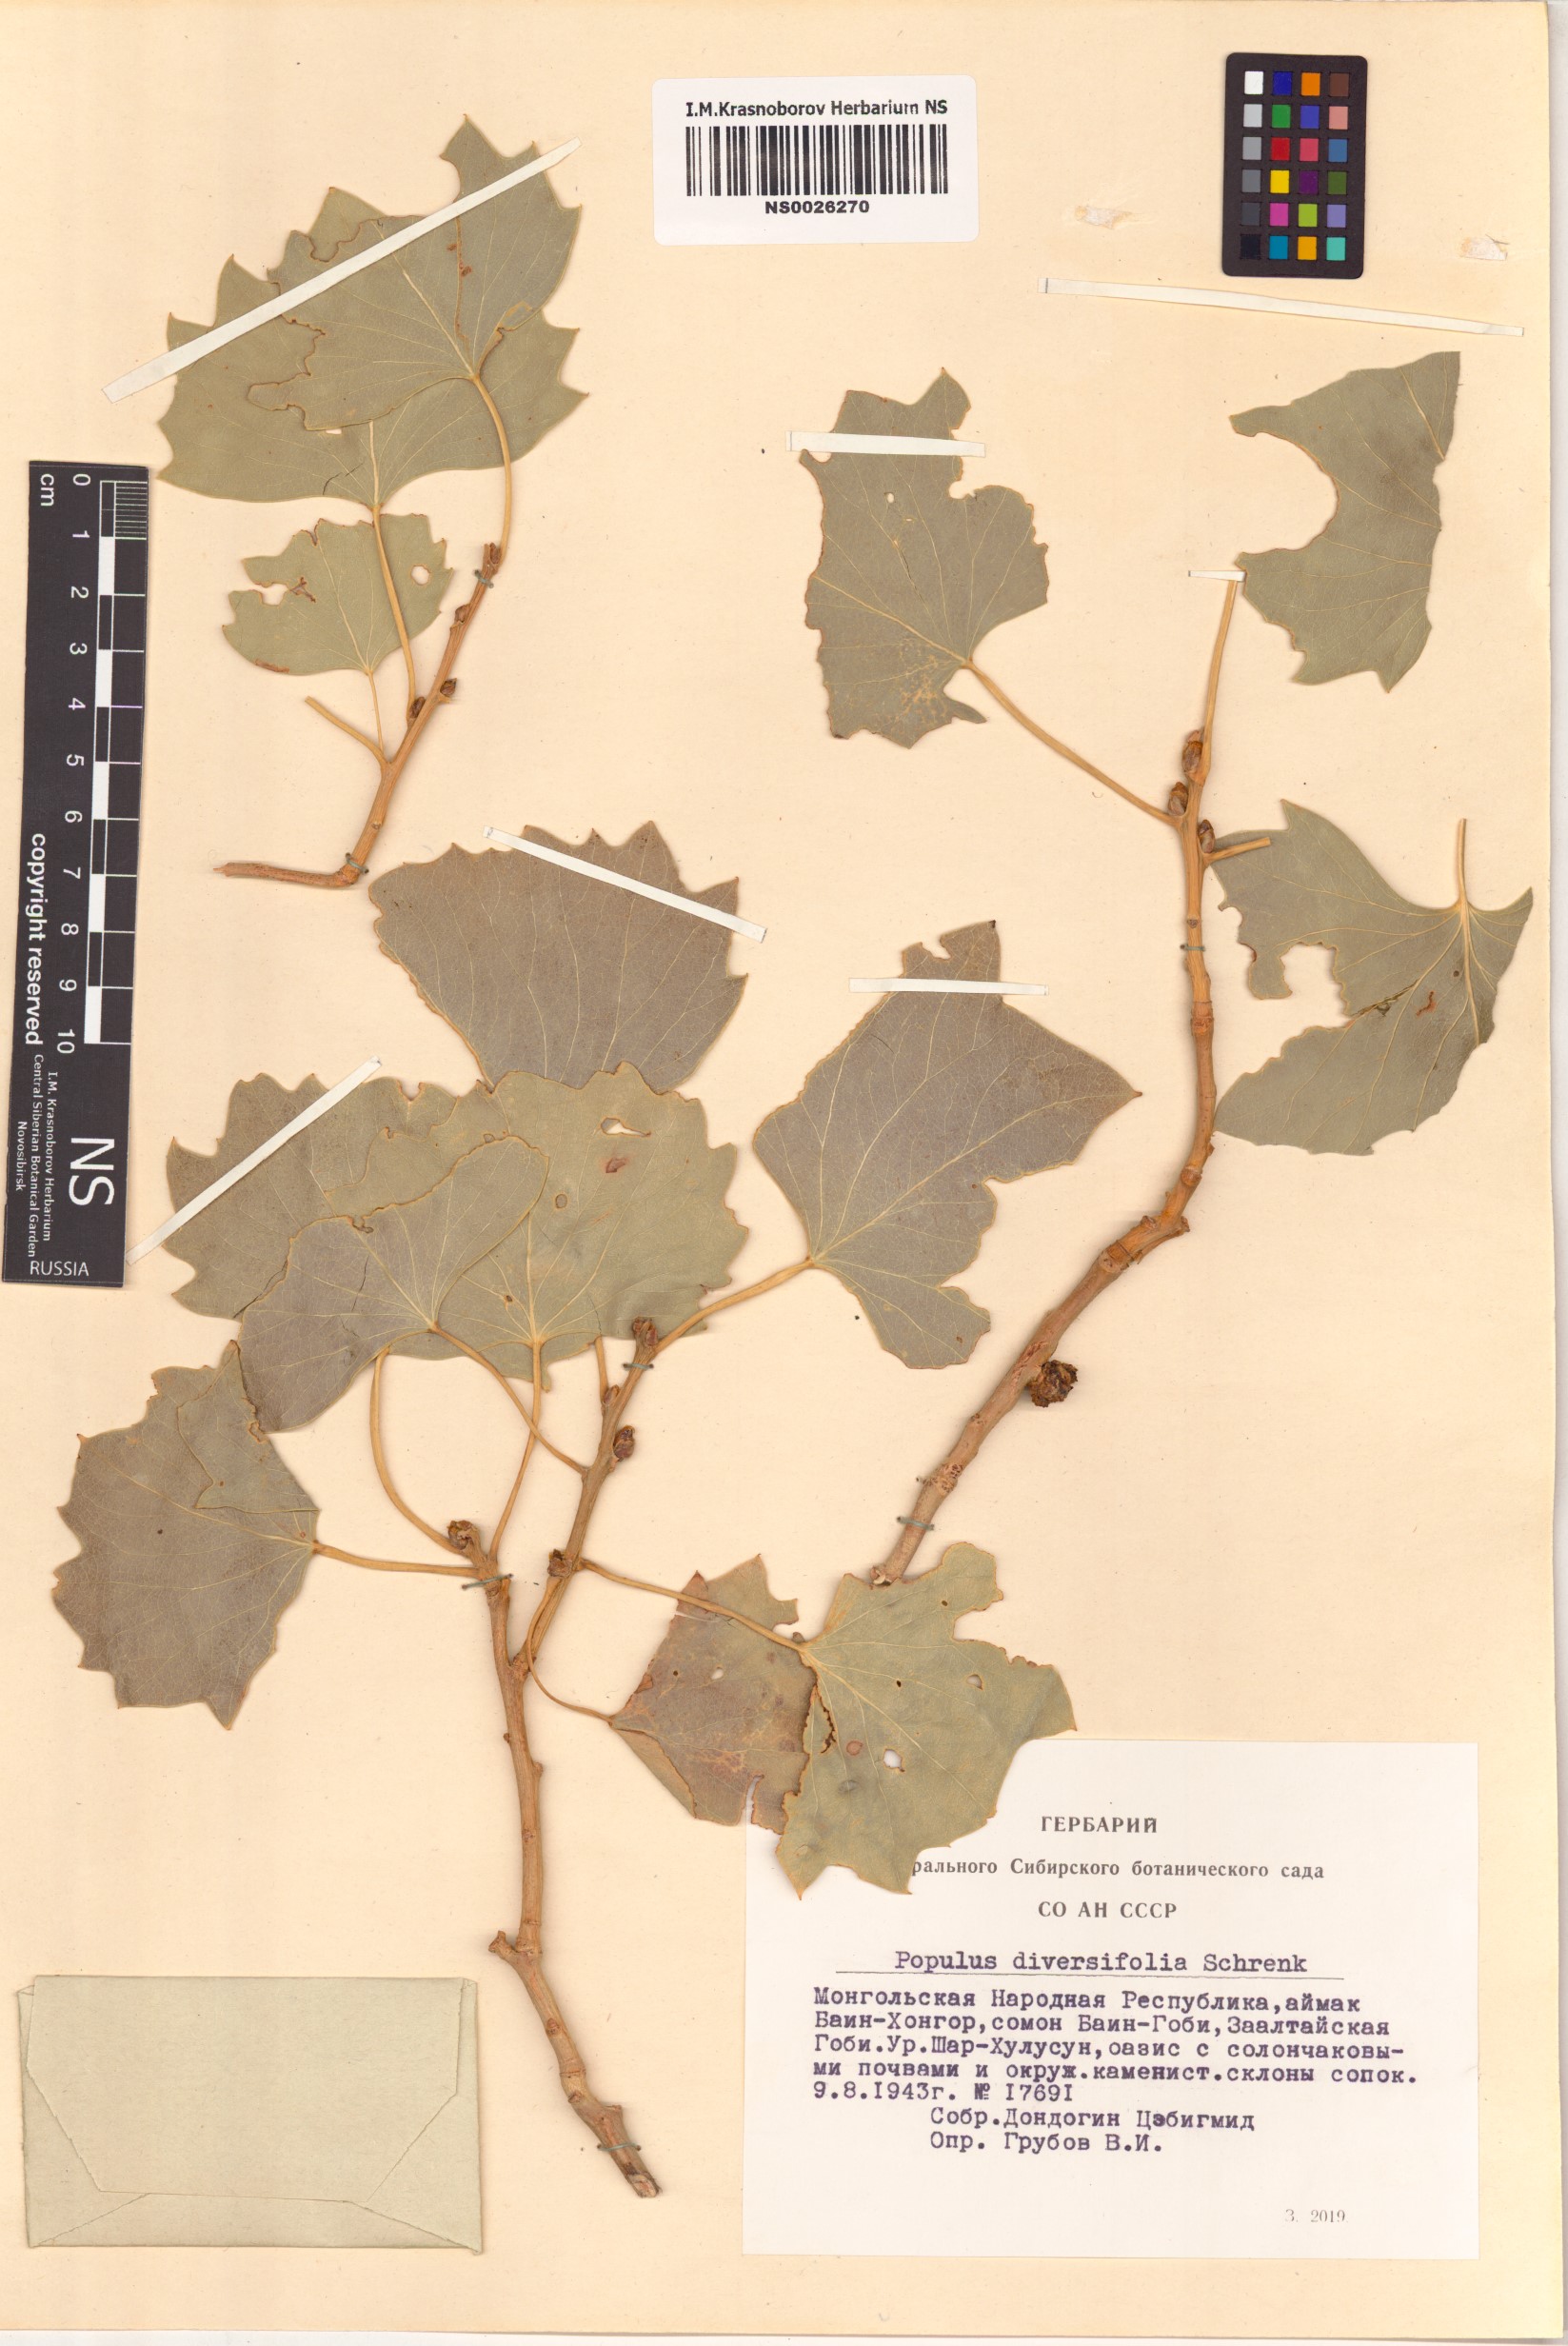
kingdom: Plantae
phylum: Tracheophyta
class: Magnoliopsida
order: Malpighiales
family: Salicaceae
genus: Populus
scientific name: Populus euphratica
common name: Euphrates poplar
